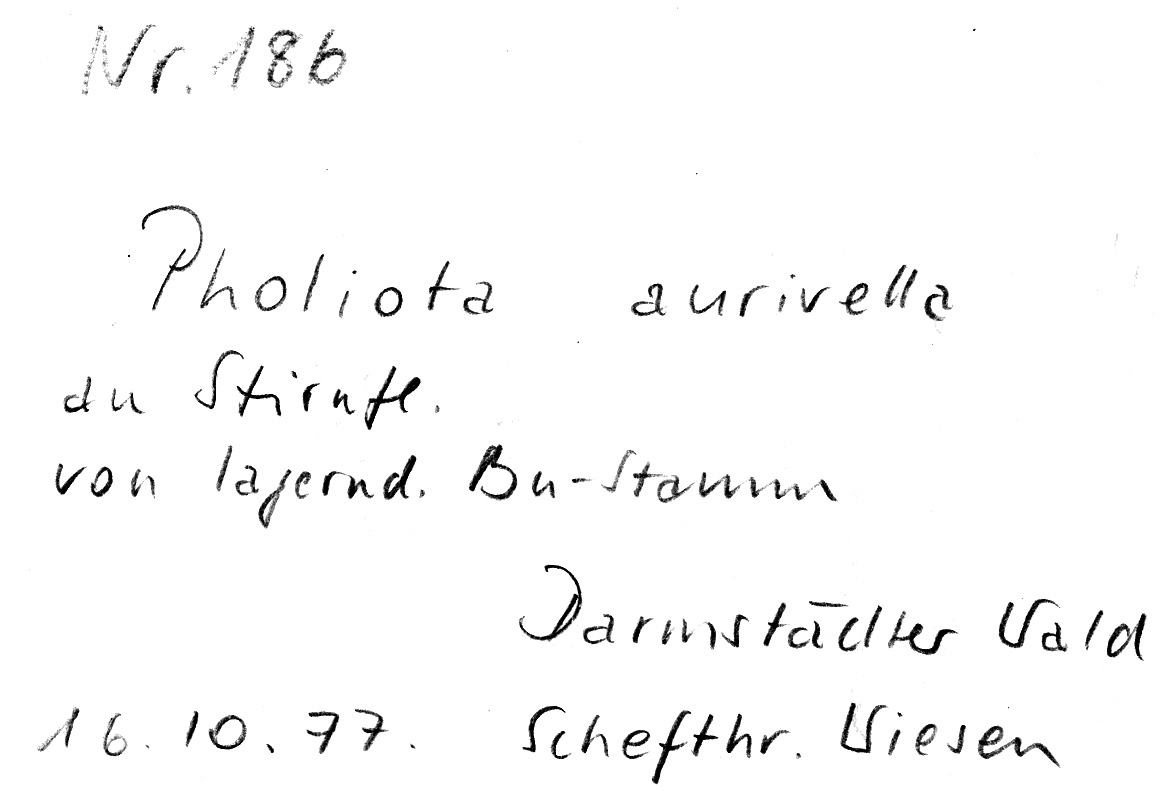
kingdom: Plantae
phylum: Tracheophyta
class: Magnoliopsida
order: Fagales
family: Fagaceae
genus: Fagus
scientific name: Fagus sylvatica
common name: Beech
